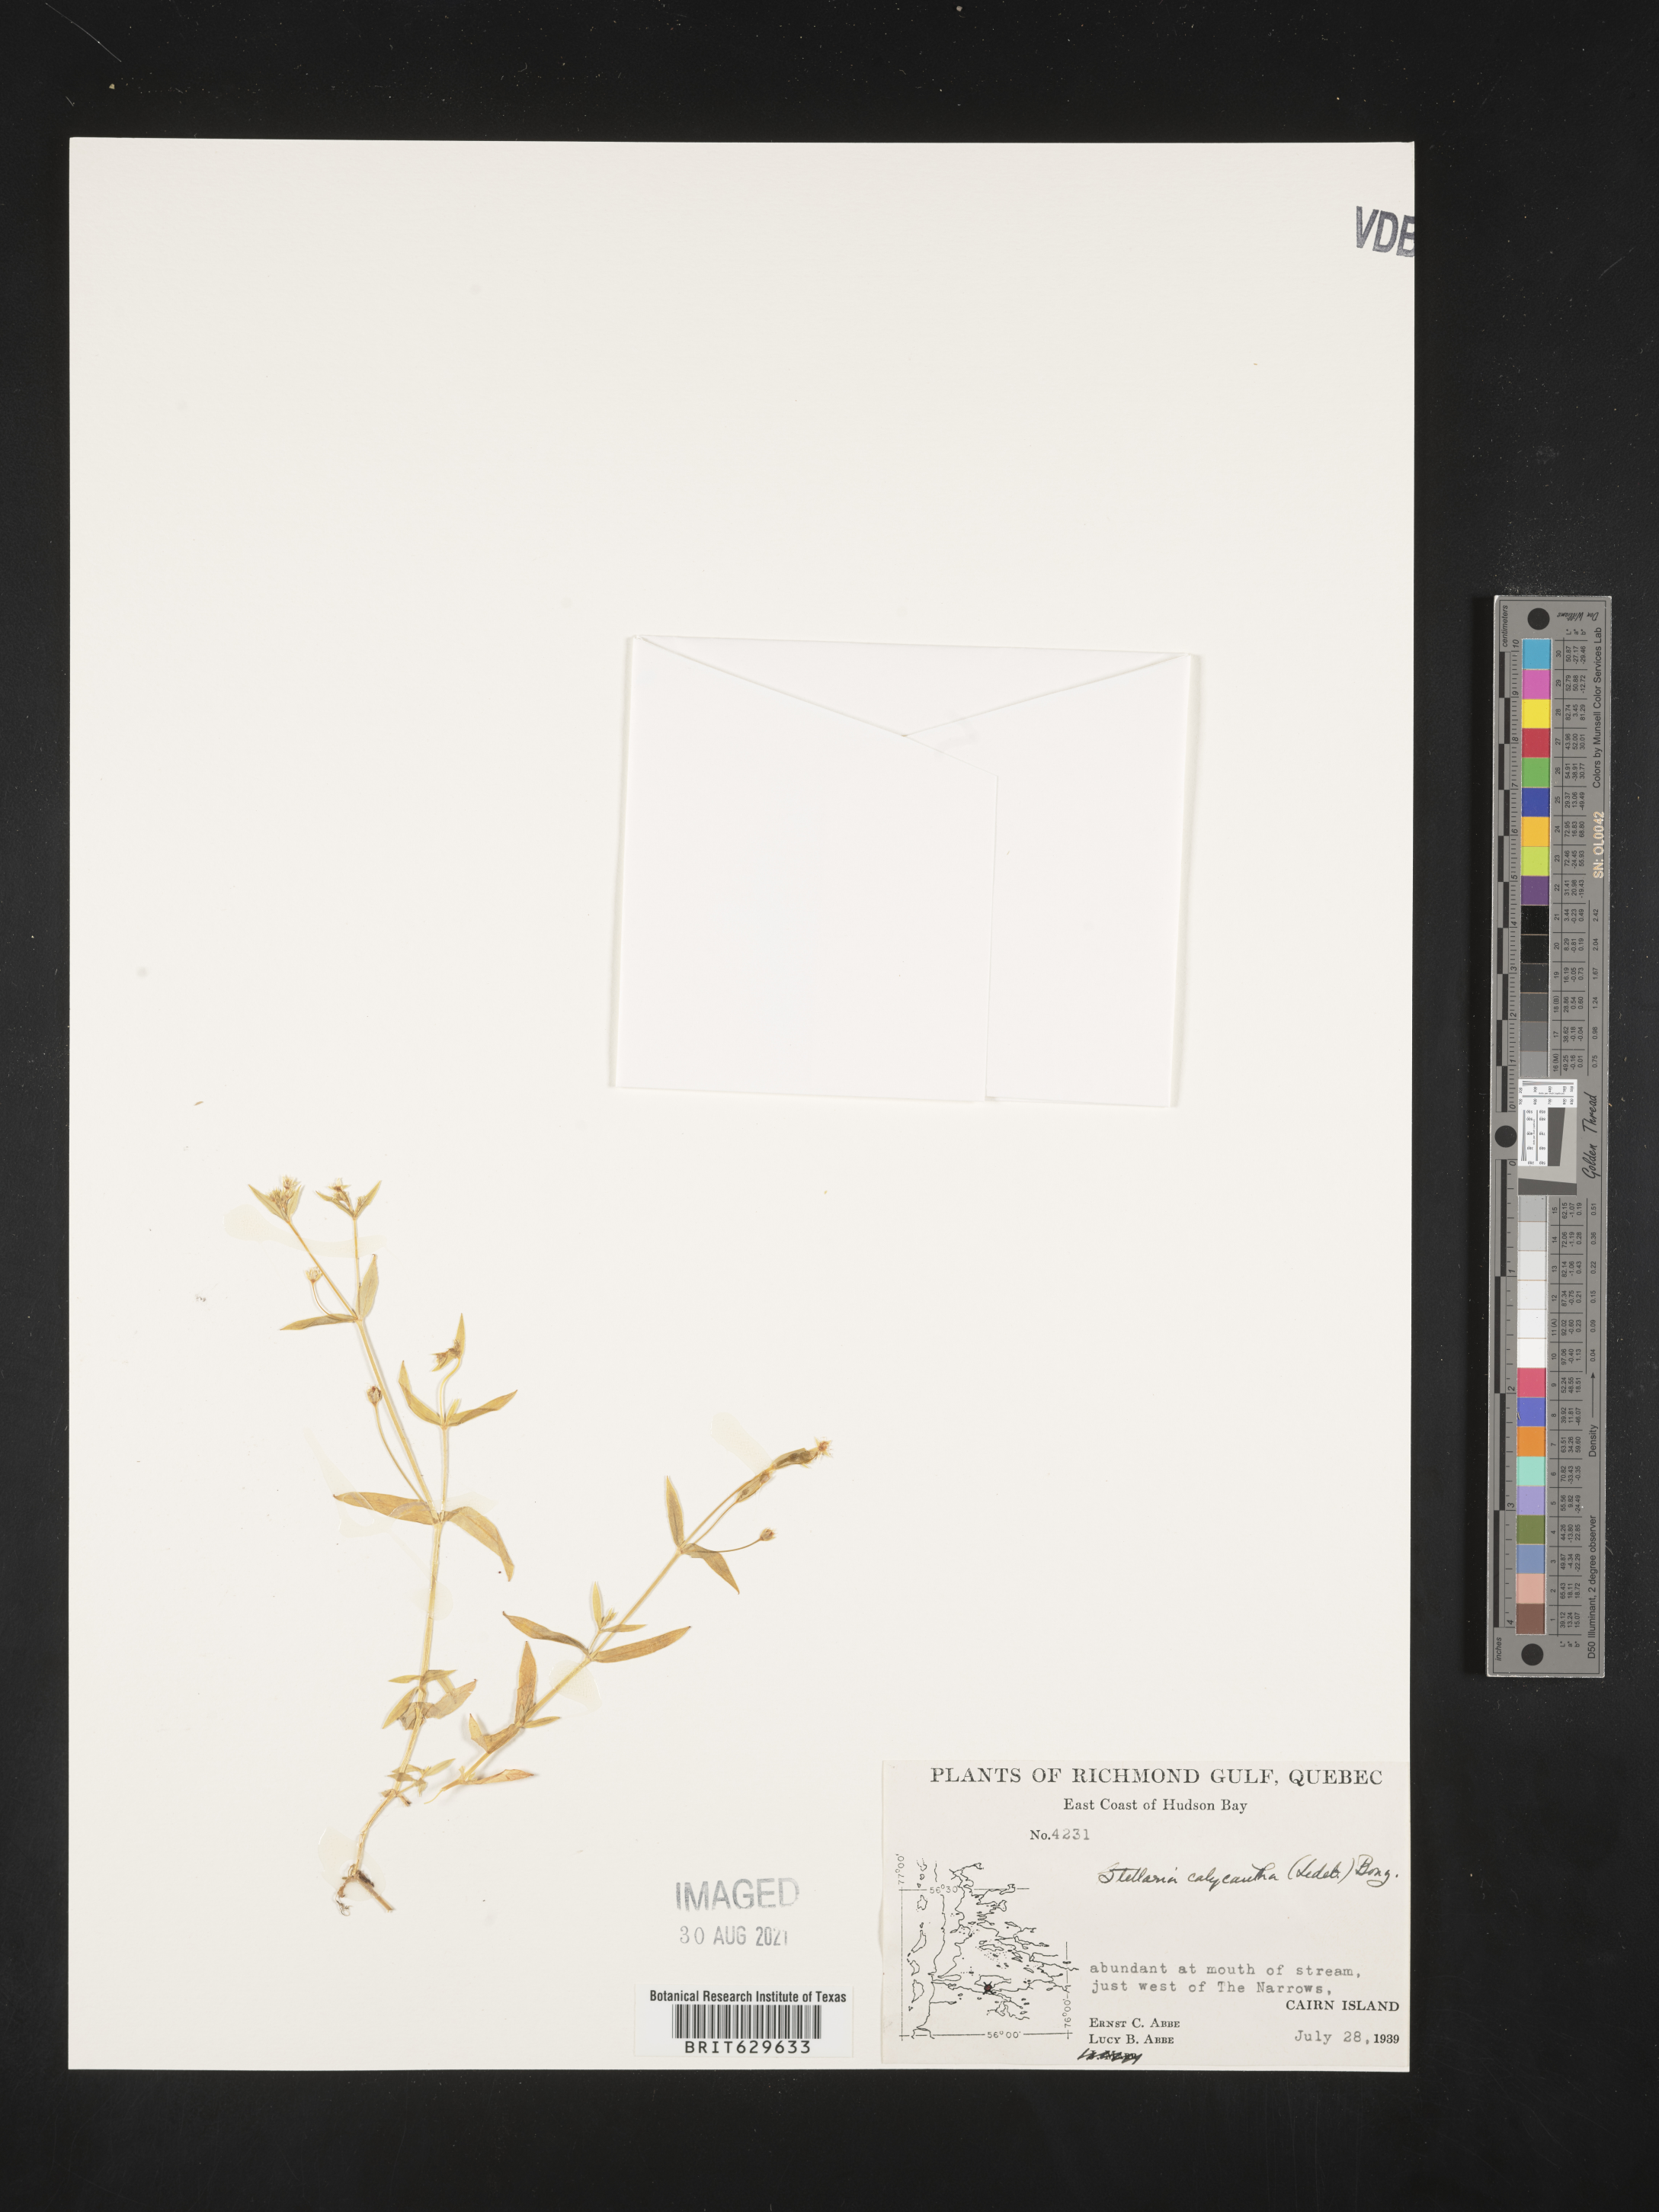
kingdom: Plantae
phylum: Tracheophyta
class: Magnoliopsida
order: Caryophyllales
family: Caryophyllaceae
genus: Stellaria
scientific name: Stellaria calycantha
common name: Northern starwort
